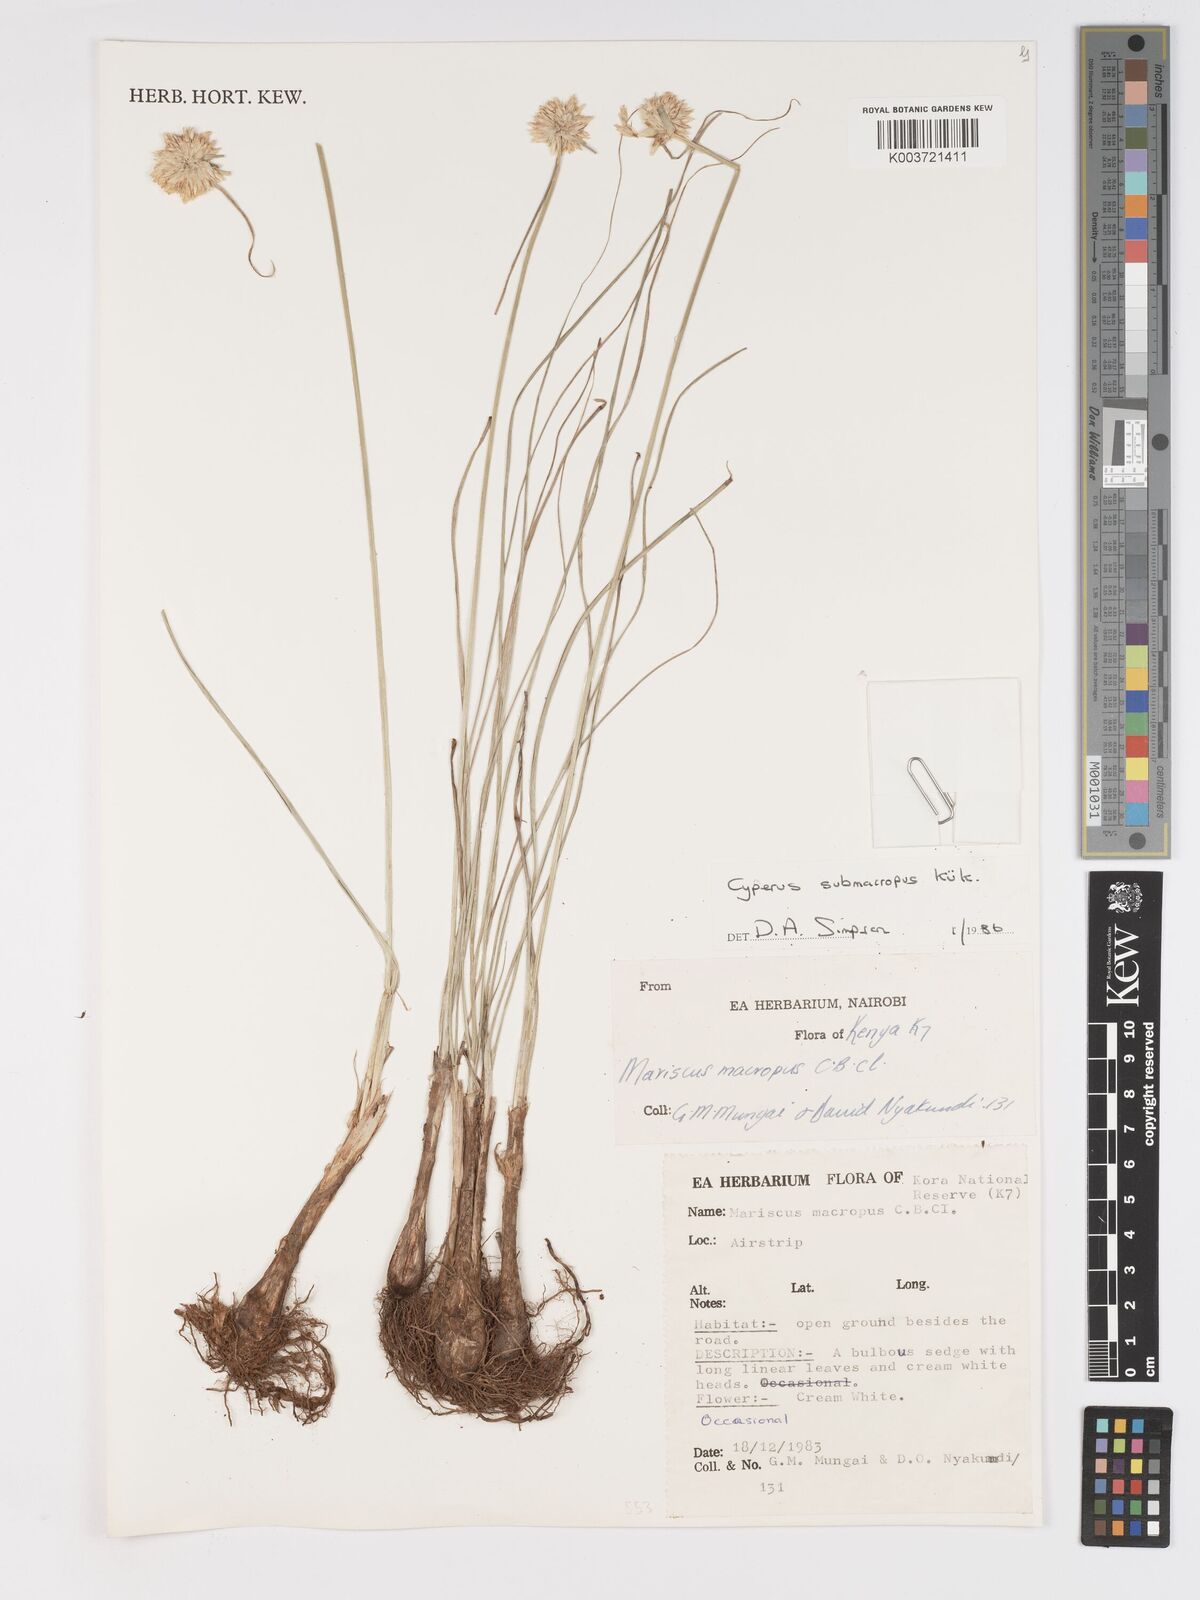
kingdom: Plantae
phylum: Tracheophyta
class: Liliopsida
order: Poales
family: Cyperaceae
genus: Cyperus
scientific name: Cyperus mollipes
